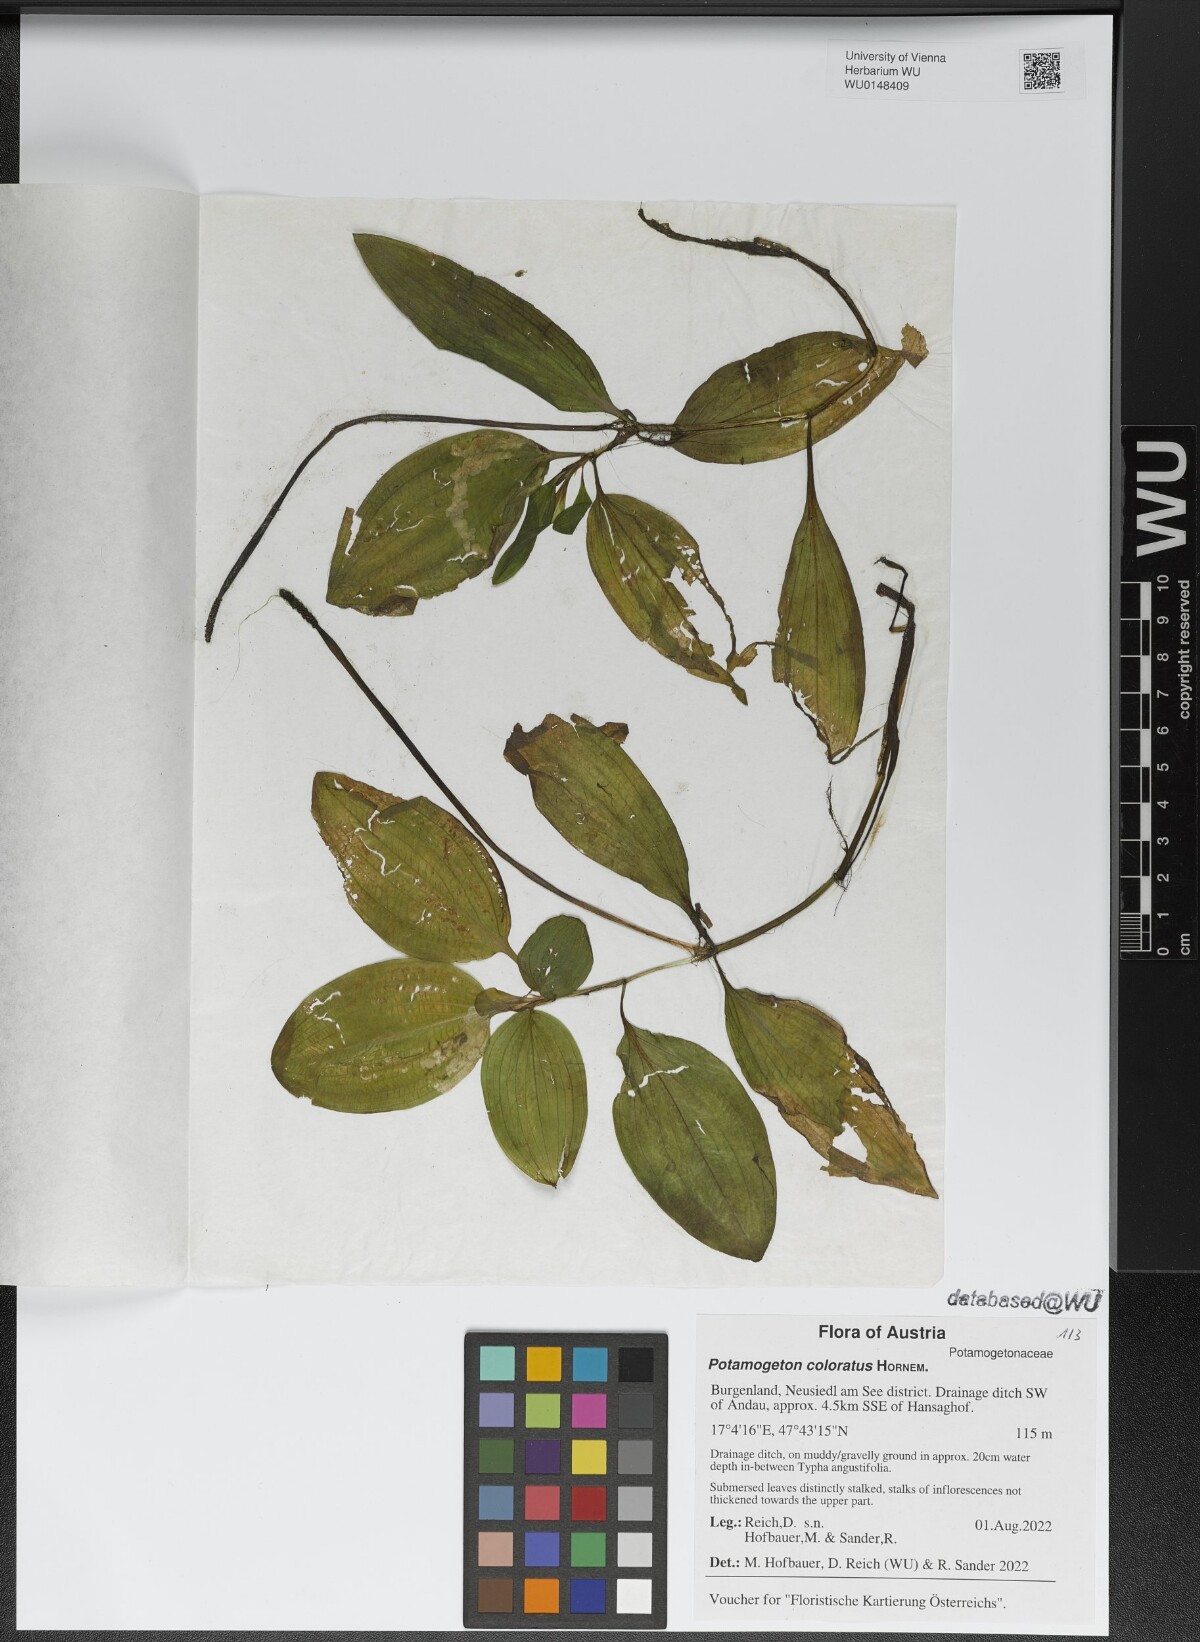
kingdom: Plantae
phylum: Tracheophyta
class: Liliopsida
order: Alismatales
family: Potamogetonaceae
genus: Potamogeton
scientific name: Potamogeton coloratus
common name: Fen pondweed
